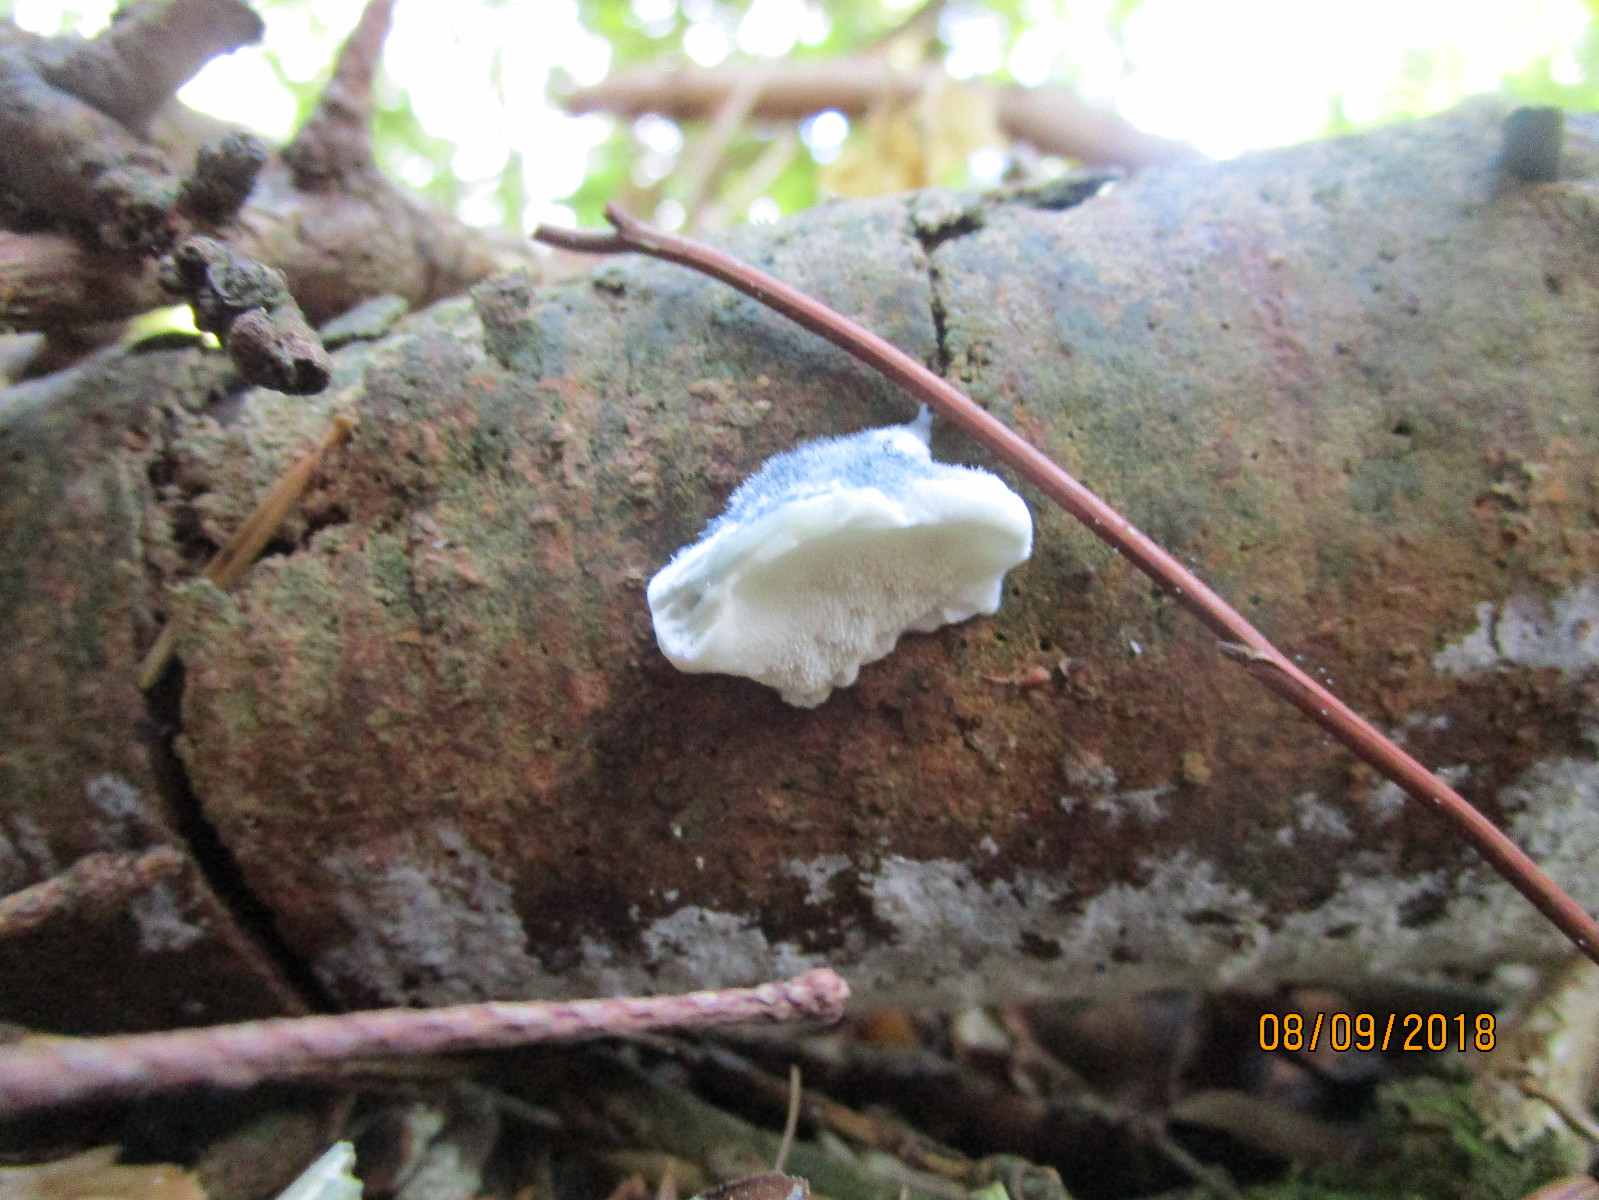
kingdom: Fungi
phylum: Basidiomycota
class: Agaricomycetes
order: Polyporales
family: Polyporaceae
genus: Cyanosporus
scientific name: Cyanosporus caesius
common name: blålig kødporesvamp
